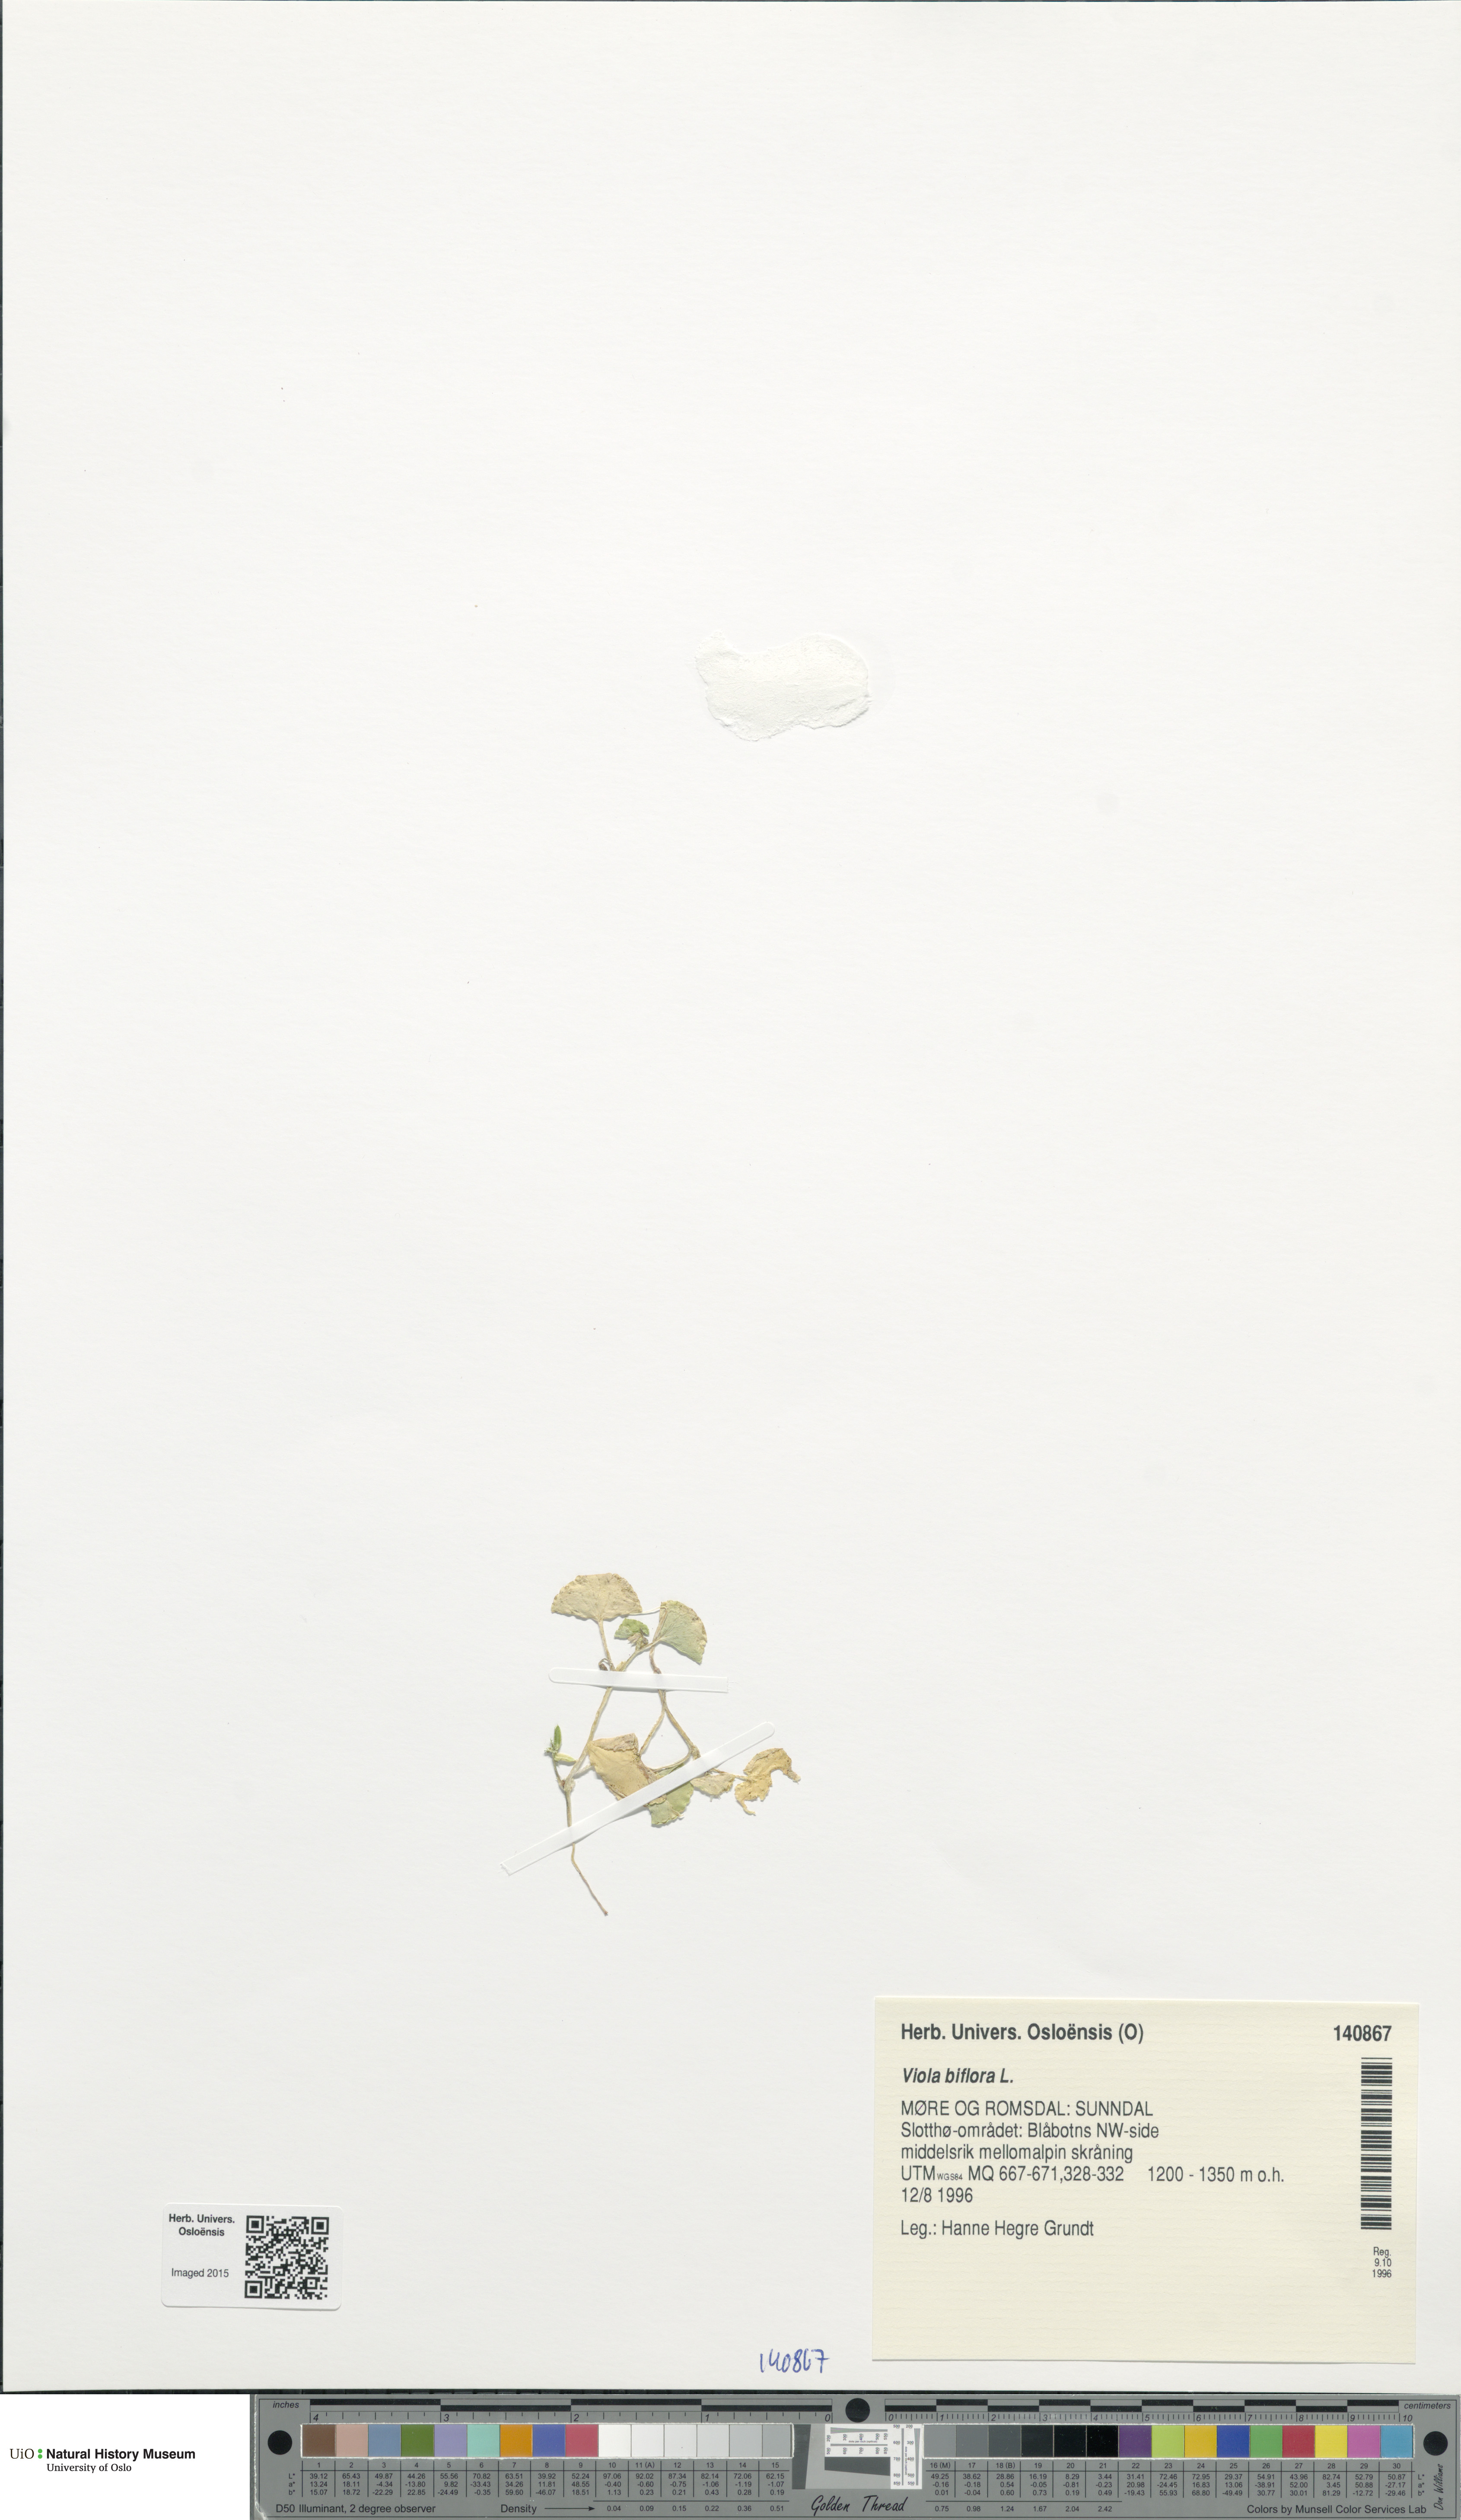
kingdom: Plantae
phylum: Tracheophyta
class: Magnoliopsida
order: Malpighiales
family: Violaceae
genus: Viola
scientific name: Viola biflora
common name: Alpine yellow violet
